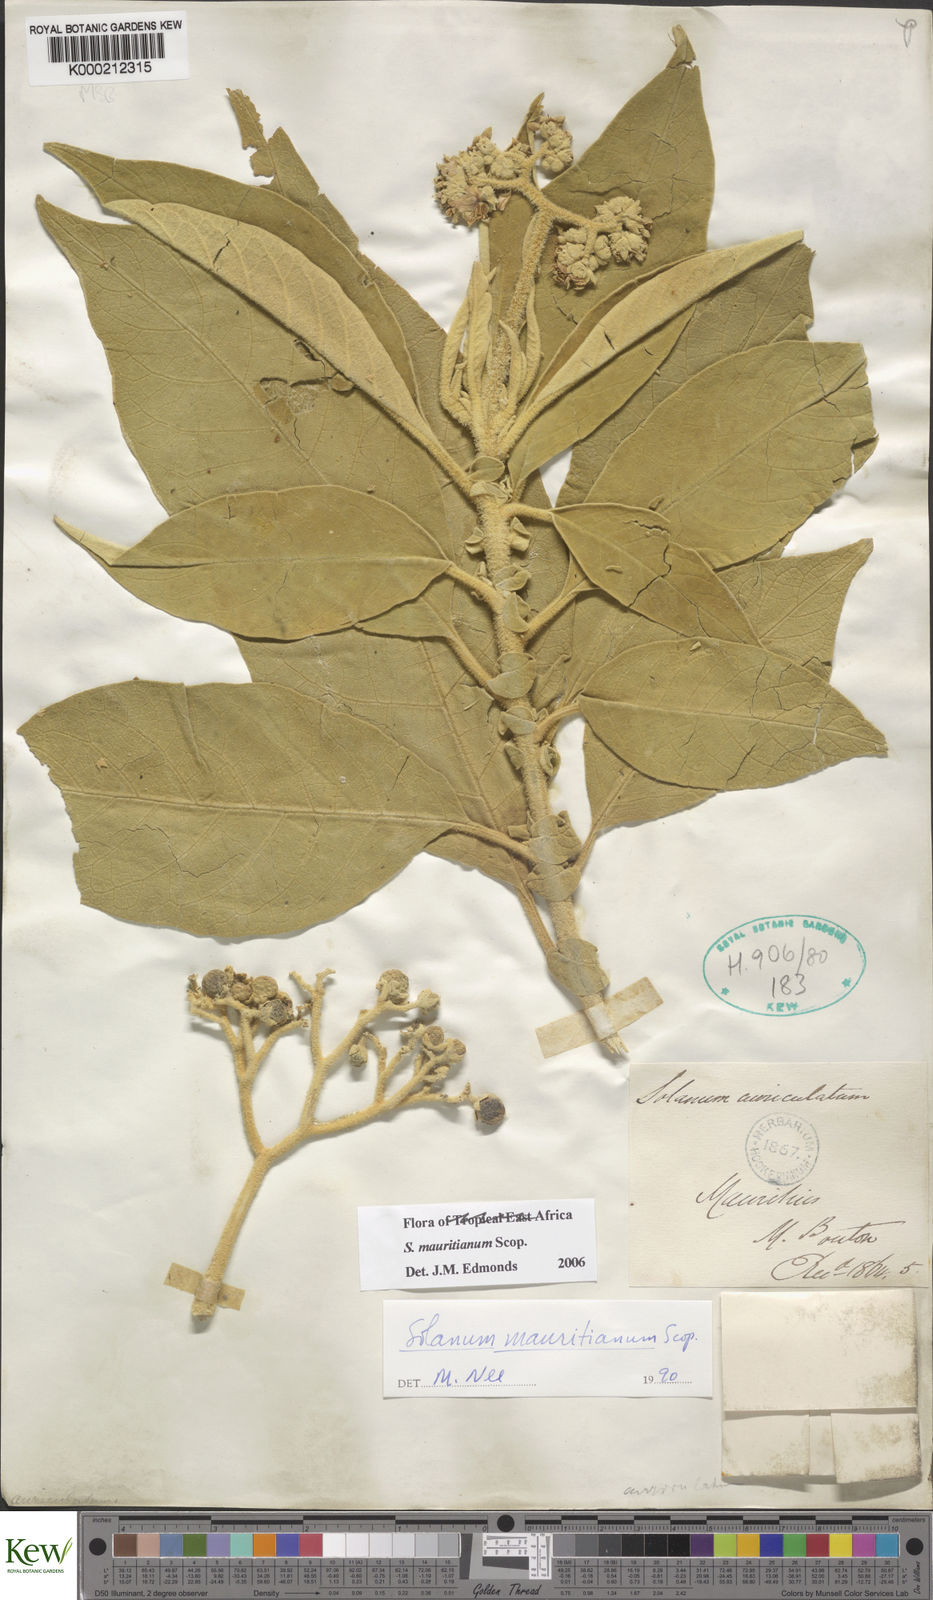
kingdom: Plantae
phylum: Tracheophyta
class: Magnoliopsida
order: Solanales
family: Solanaceae
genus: Solanum
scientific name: Solanum mauritianum
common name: Earleaf nightshade
